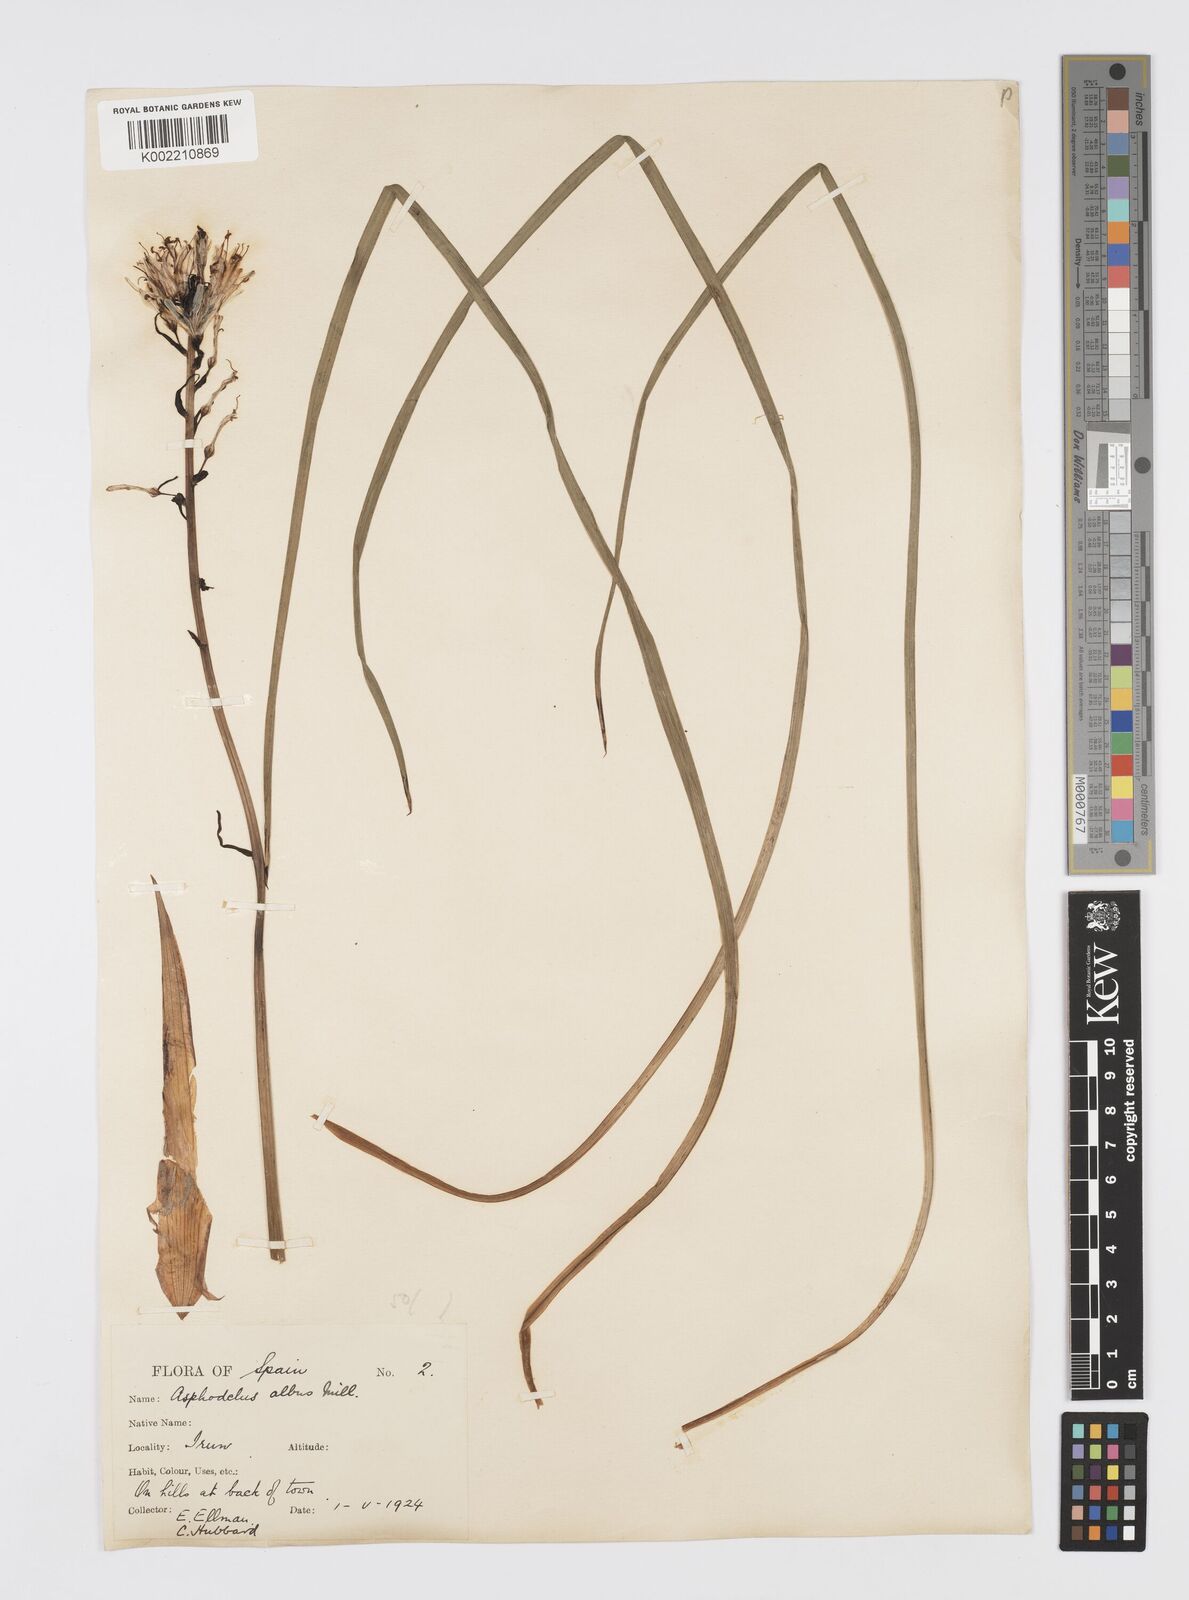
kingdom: Plantae
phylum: Tracheophyta
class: Liliopsida
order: Asparagales
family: Asphodelaceae
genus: Asphodelus
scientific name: Asphodelus albus
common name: White asphodel
